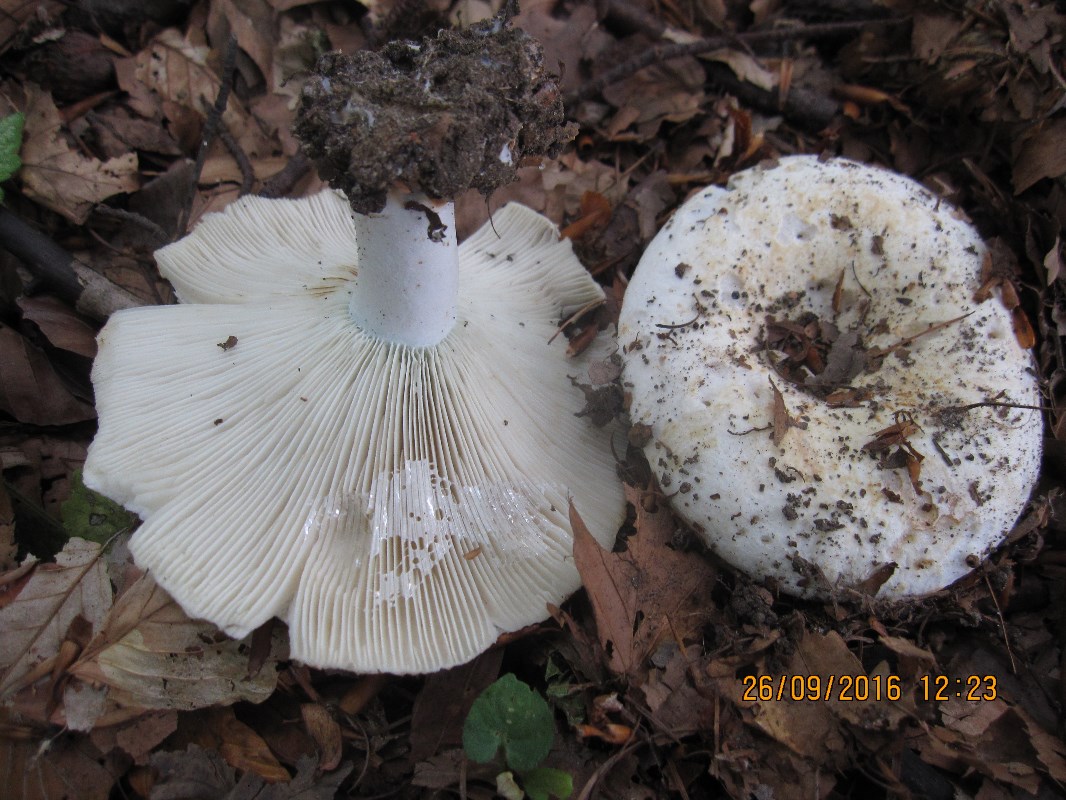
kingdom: Fungi
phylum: Basidiomycota
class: Agaricomycetes
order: Russulales
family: Russulaceae
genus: Russula
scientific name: Russula chloroides
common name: grønhalset tragt-skørhat
